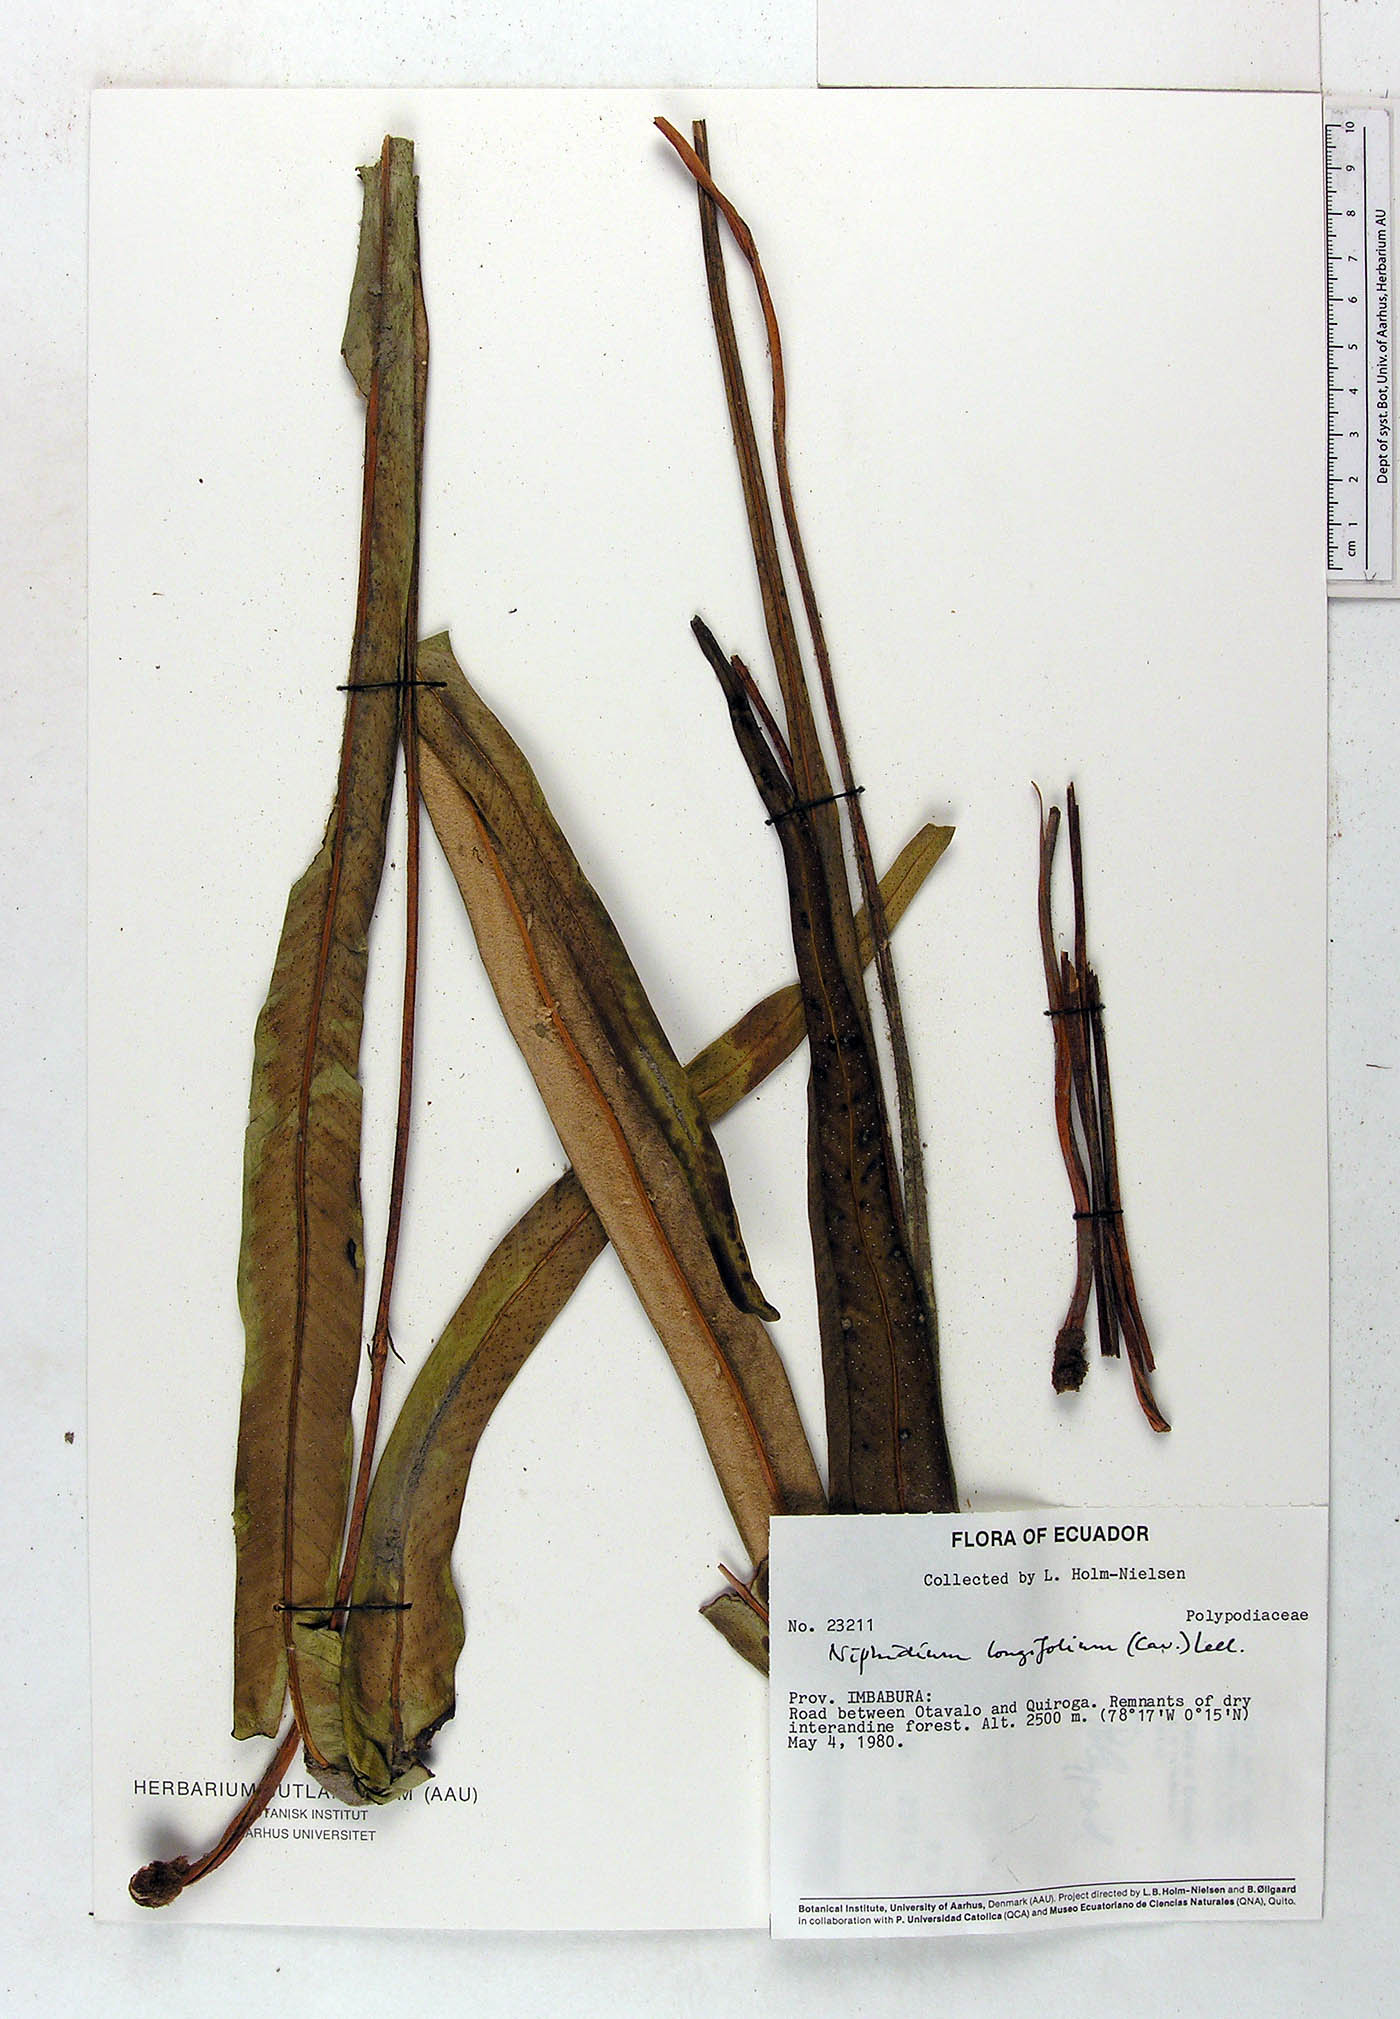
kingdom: Plantae
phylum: Tracheophyta
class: Polypodiopsida
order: Polypodiales
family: Polypodiaceae
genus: Niphidium
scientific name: Niphidium longifolium
